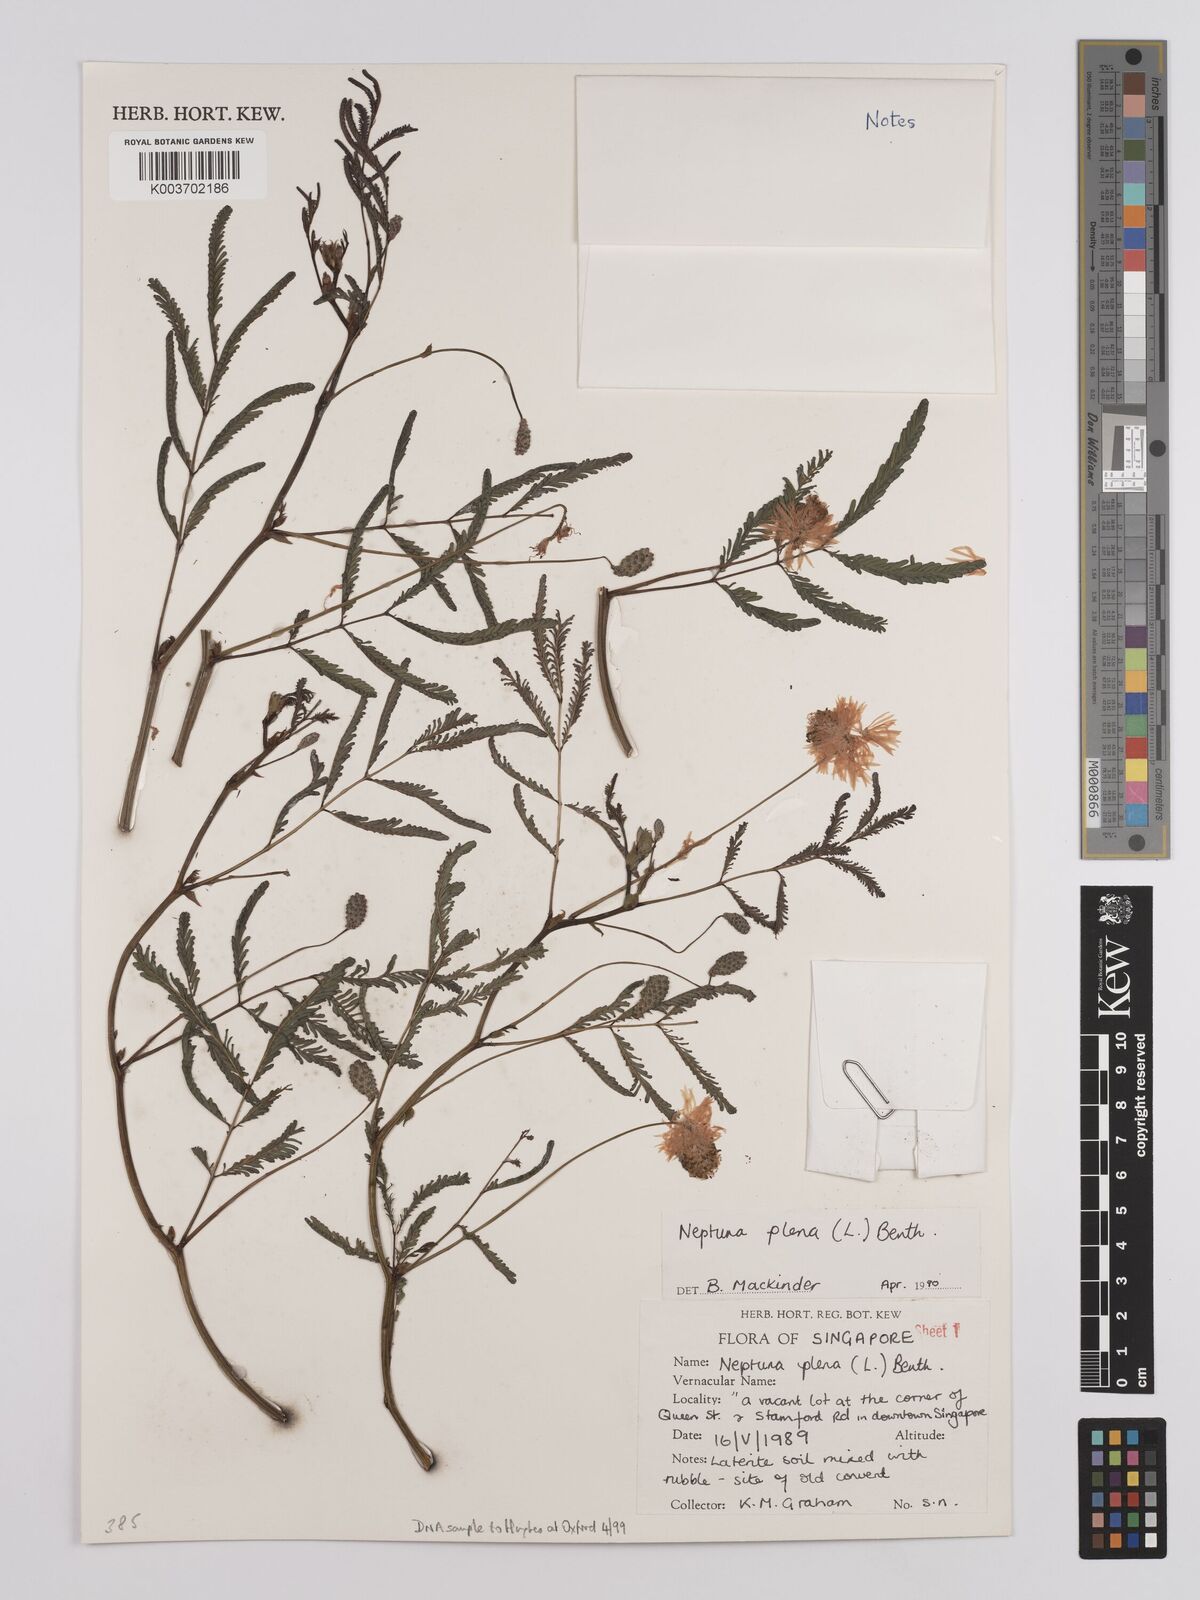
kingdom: Plantae
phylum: Tracheophyta
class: Magnoliopsida
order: Fabales
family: Fabaceae
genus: Neptunia
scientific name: Neptunia plena
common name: Dead and awake
